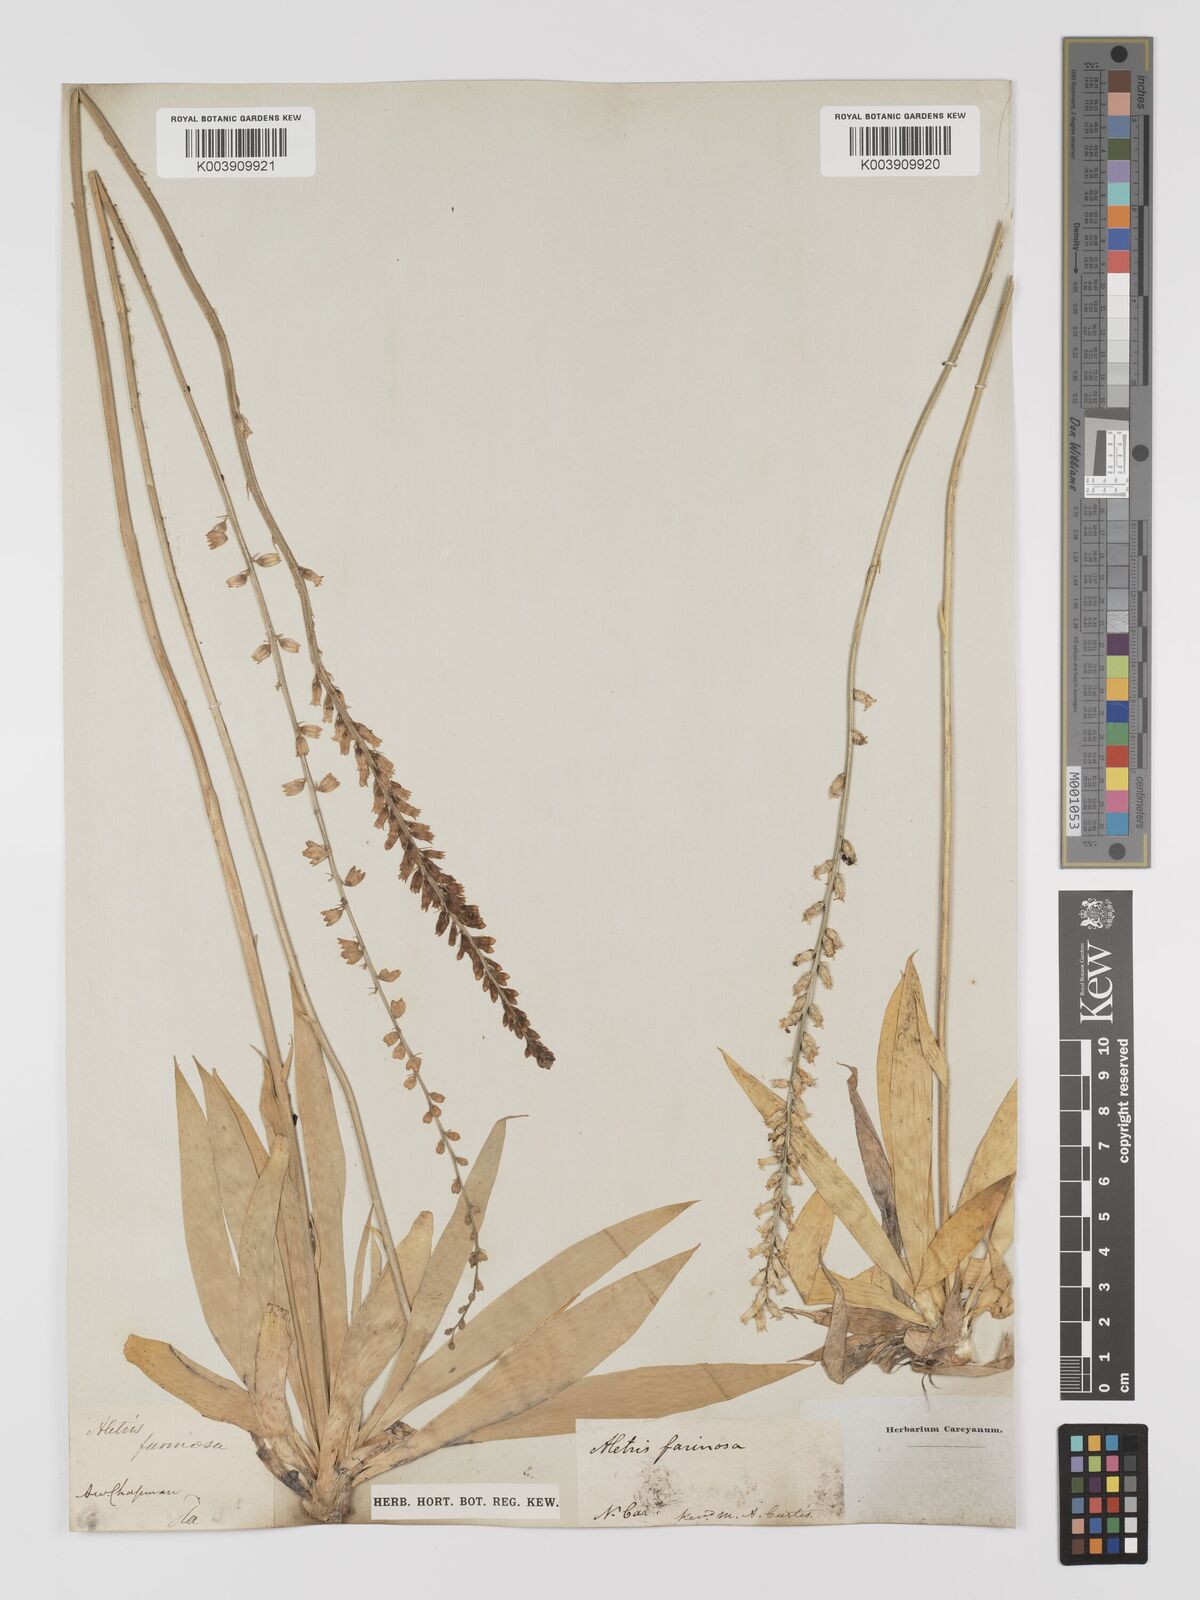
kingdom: Plantae
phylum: Tracheophyta
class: Liliopsida
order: Dioscoreales
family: Nartheciaceae
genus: Aletris
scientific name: Aletris farinosa
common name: Colicroot
